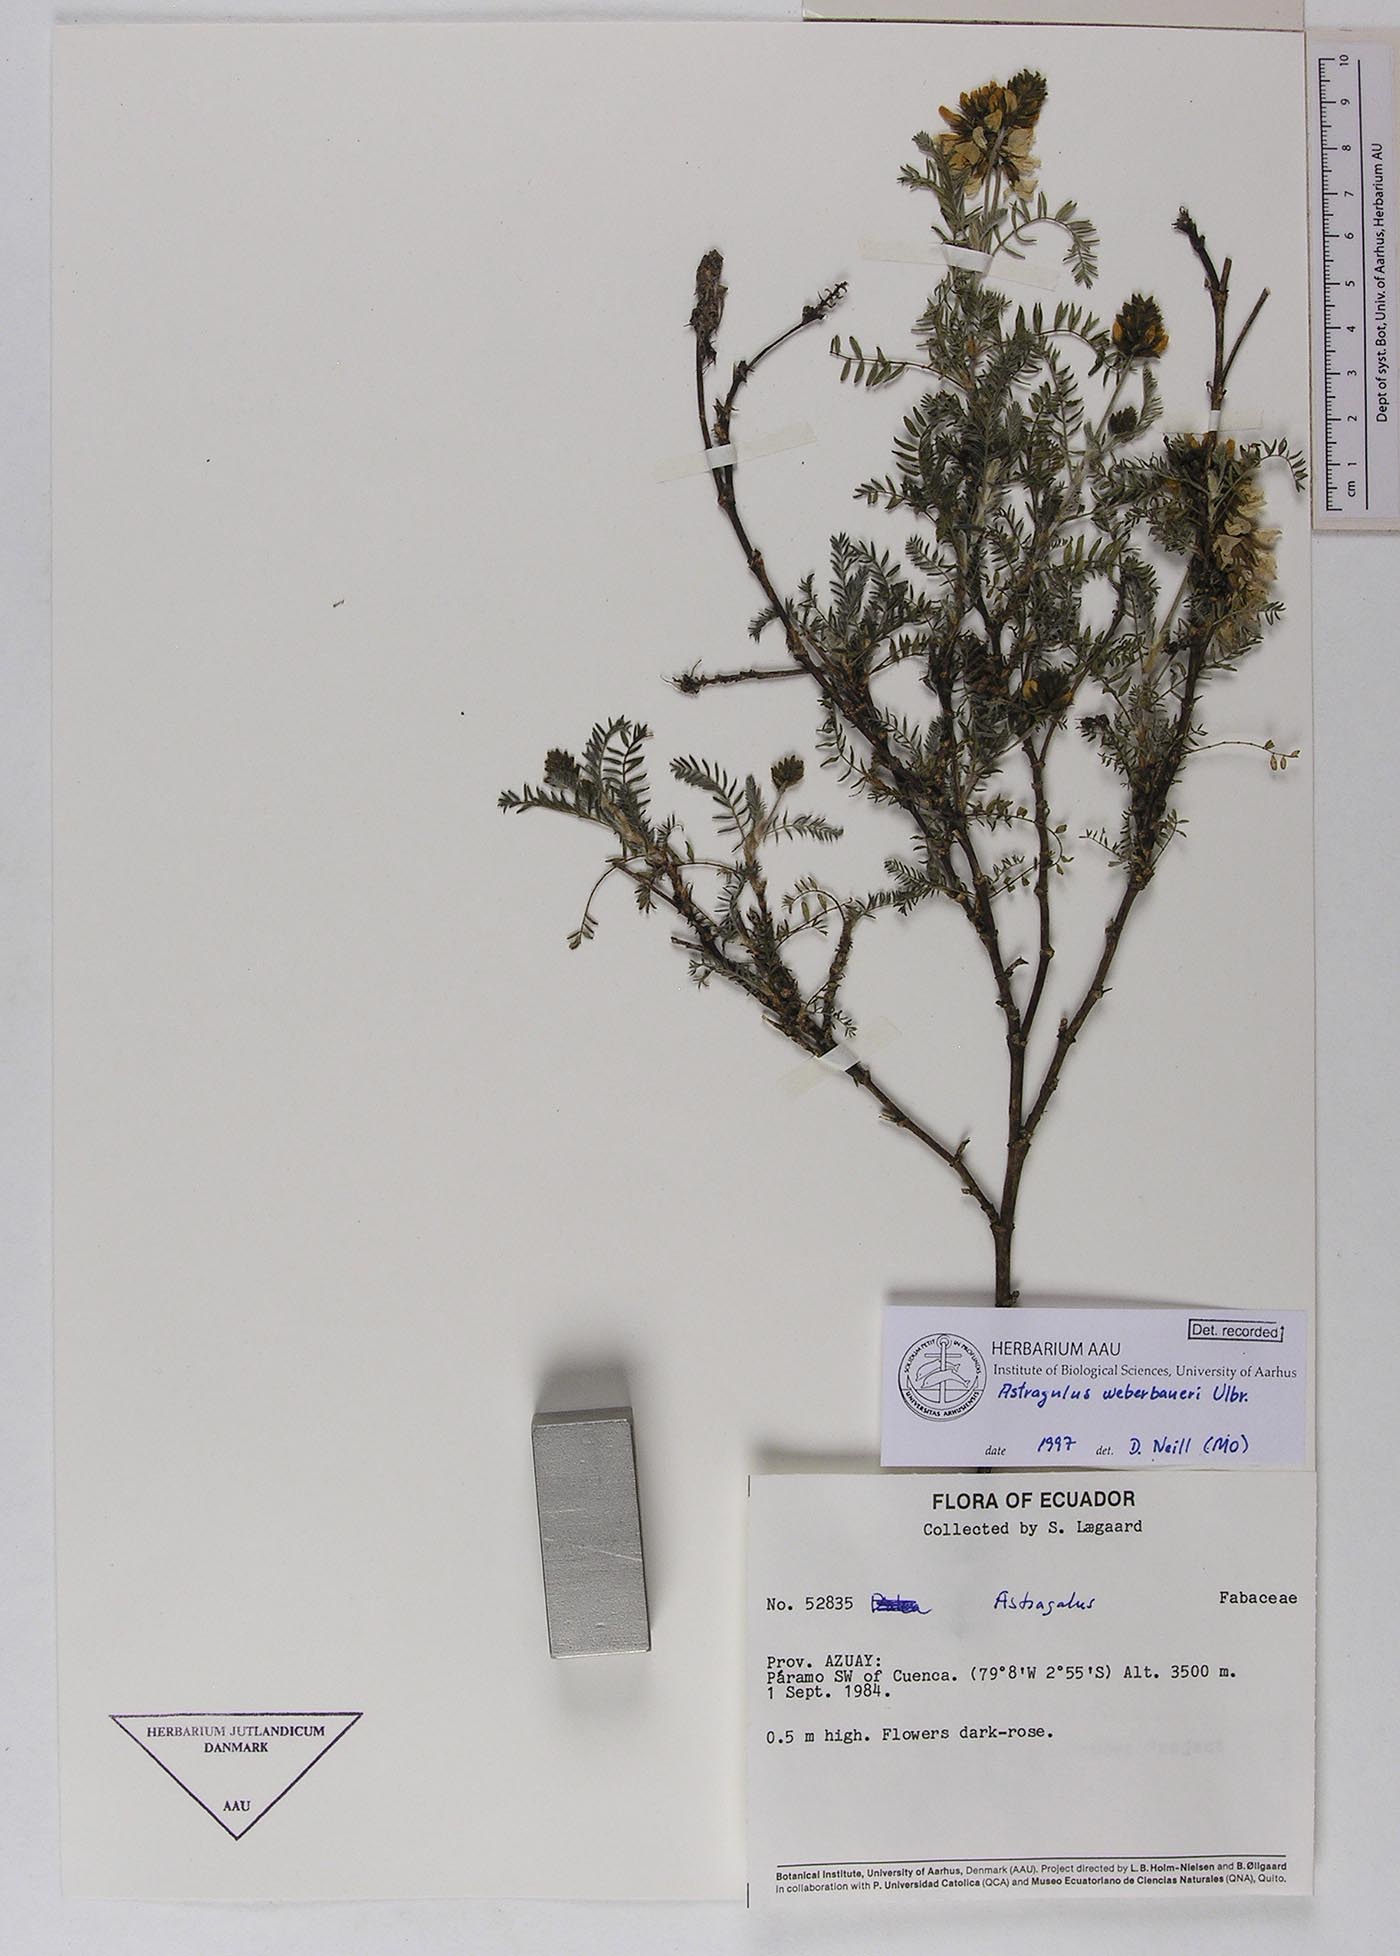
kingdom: Plantae
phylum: Tracheophyta
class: Magnoliopsida
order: Fabales
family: Fabaceae
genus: Astragalus
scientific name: Astragalus weberbaueri
